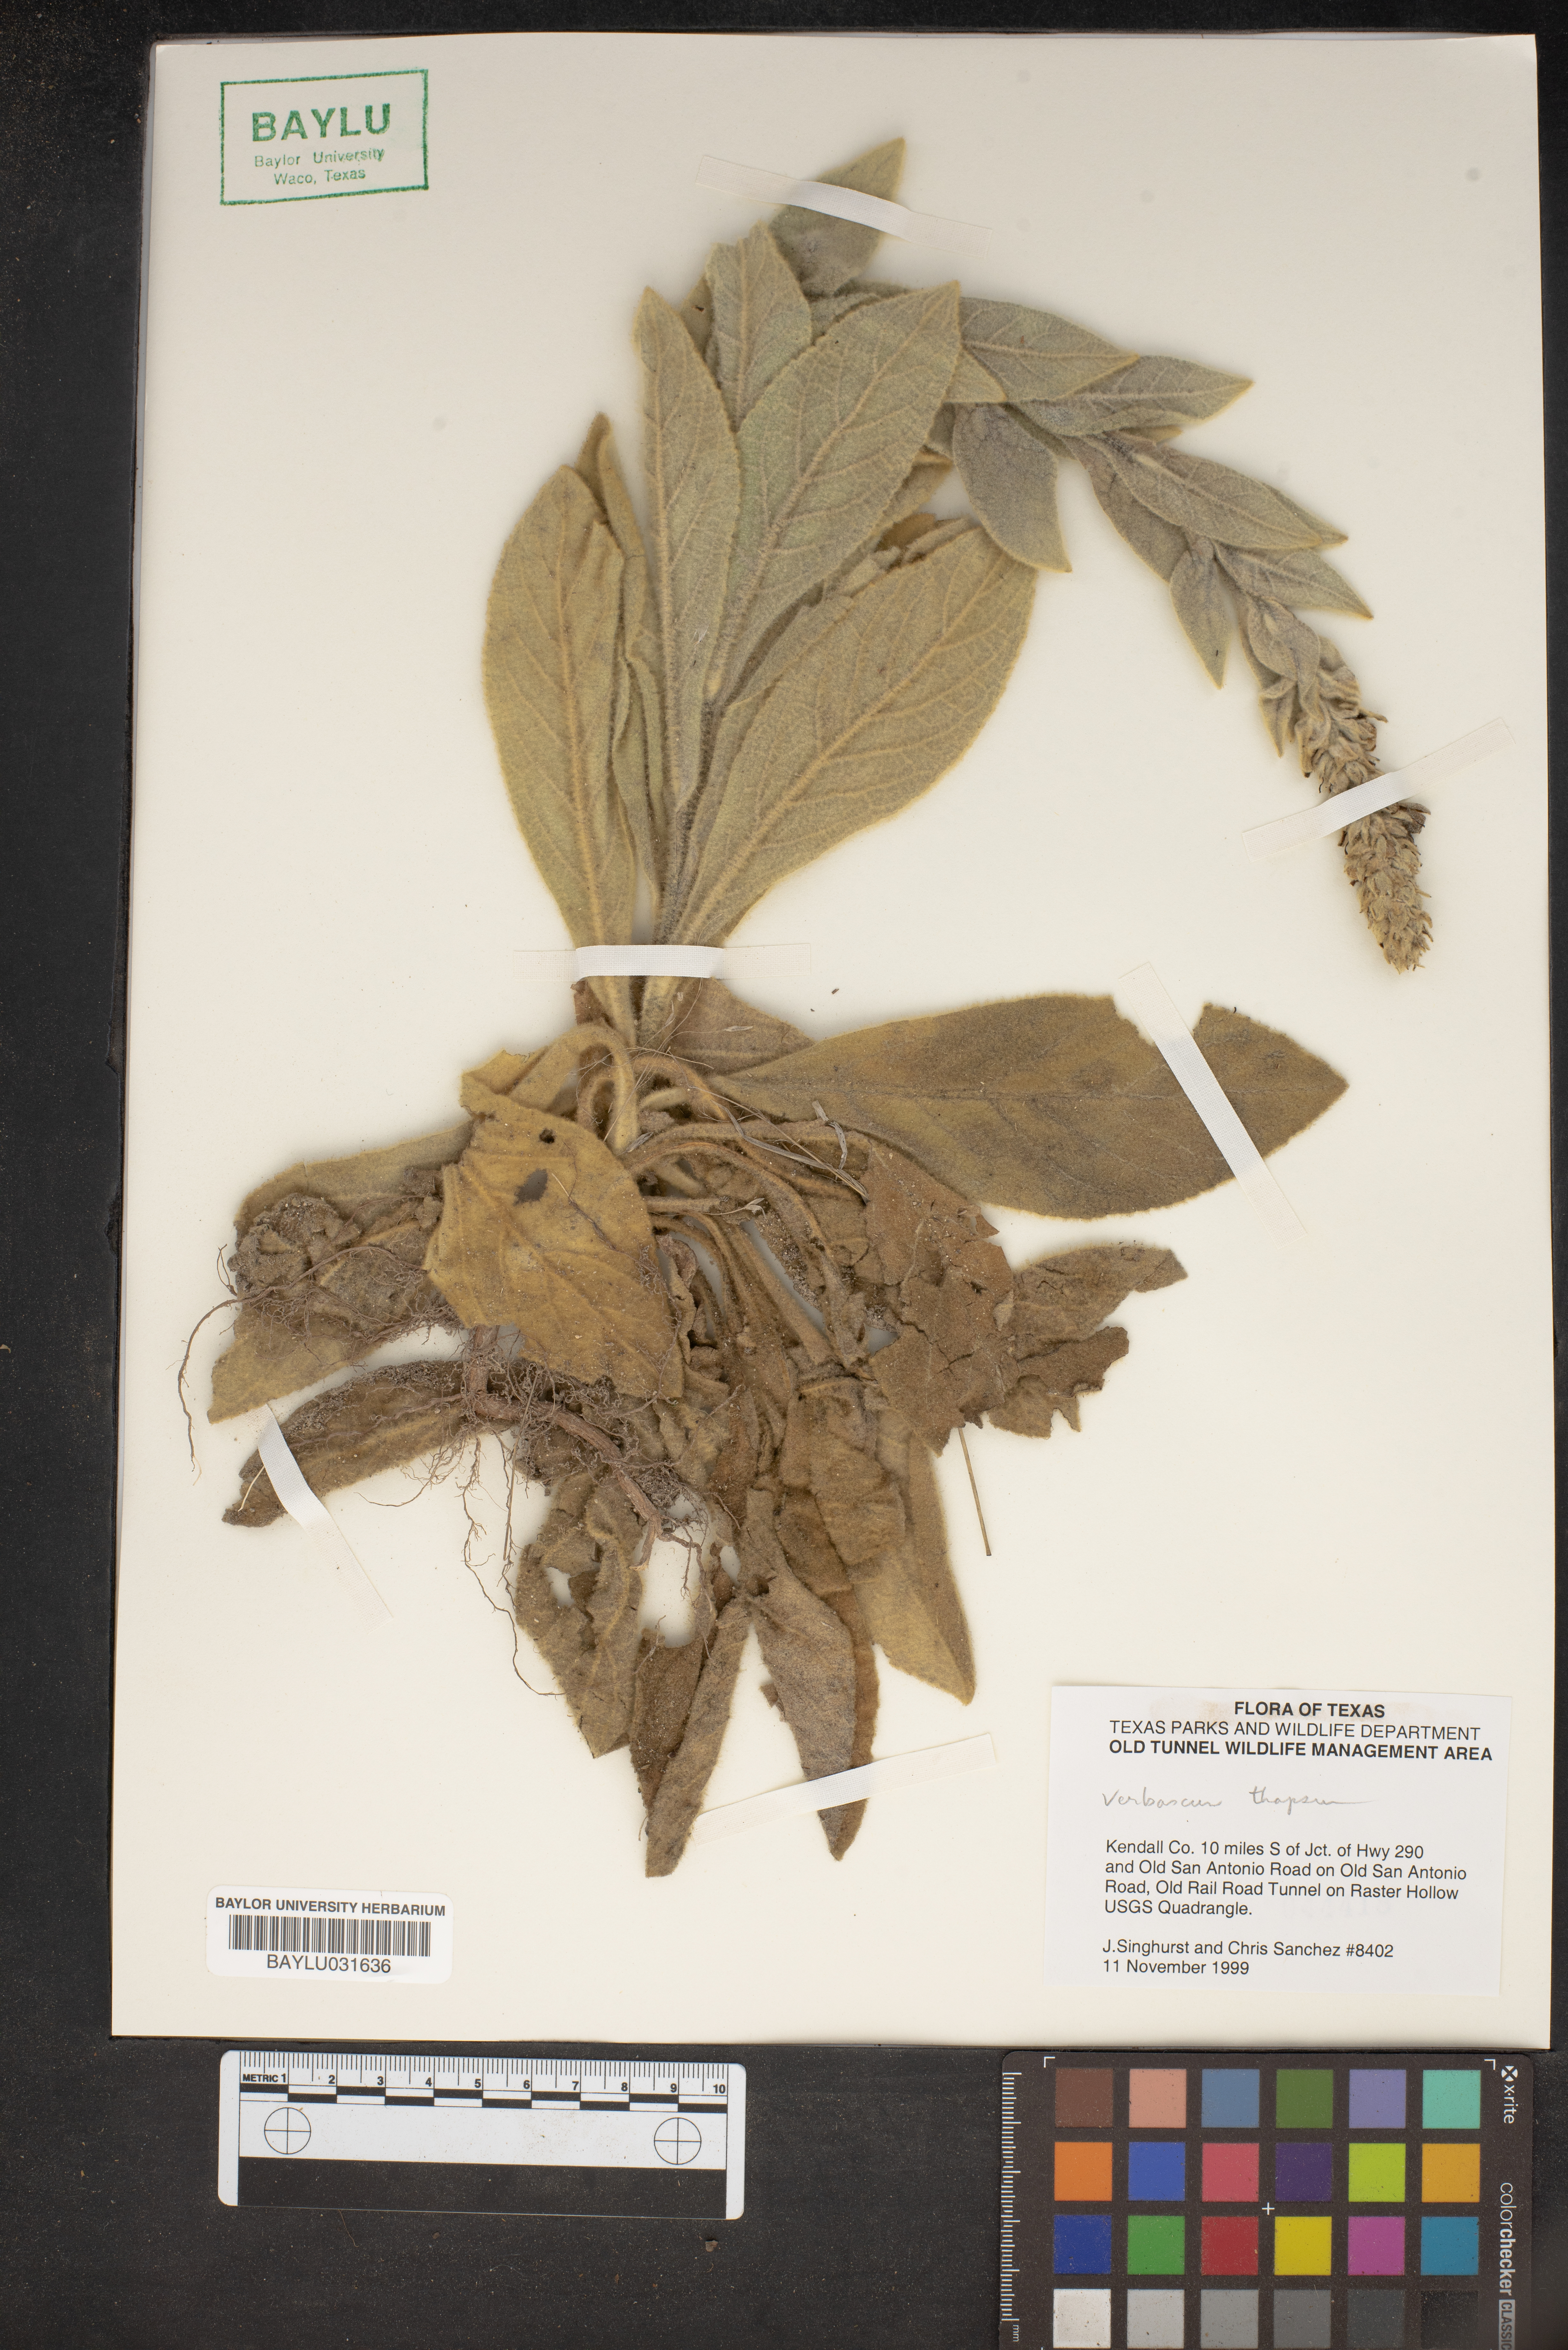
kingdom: Plantae
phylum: Tracheophyta
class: Magnoliopsida
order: Lamiales
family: Scrophulariaceae
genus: Verbascum
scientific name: Verbascum thapsus
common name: Common mullein
